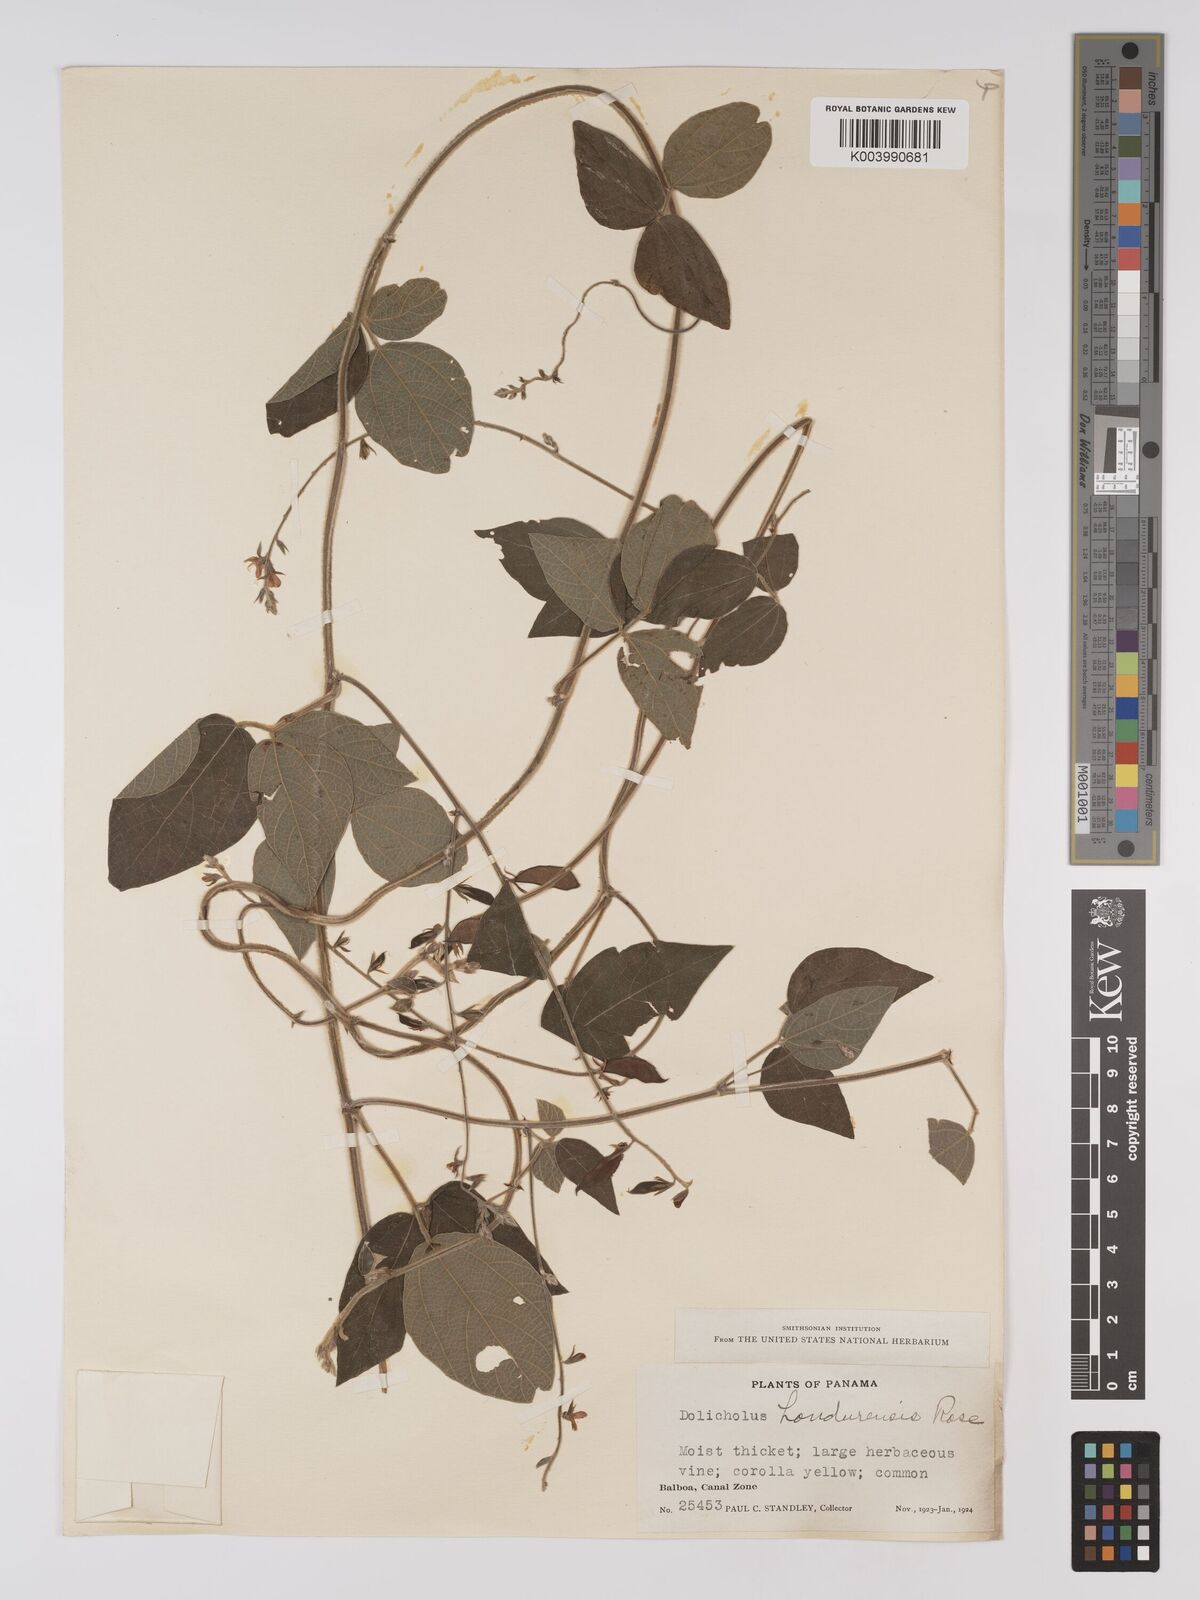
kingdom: Plantae
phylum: Tracheophyta
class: Magnoliopsida
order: Fabales
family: Fabaceae
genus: Rhynchosia
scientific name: Rhynchosia reticulata
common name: Pea withe
